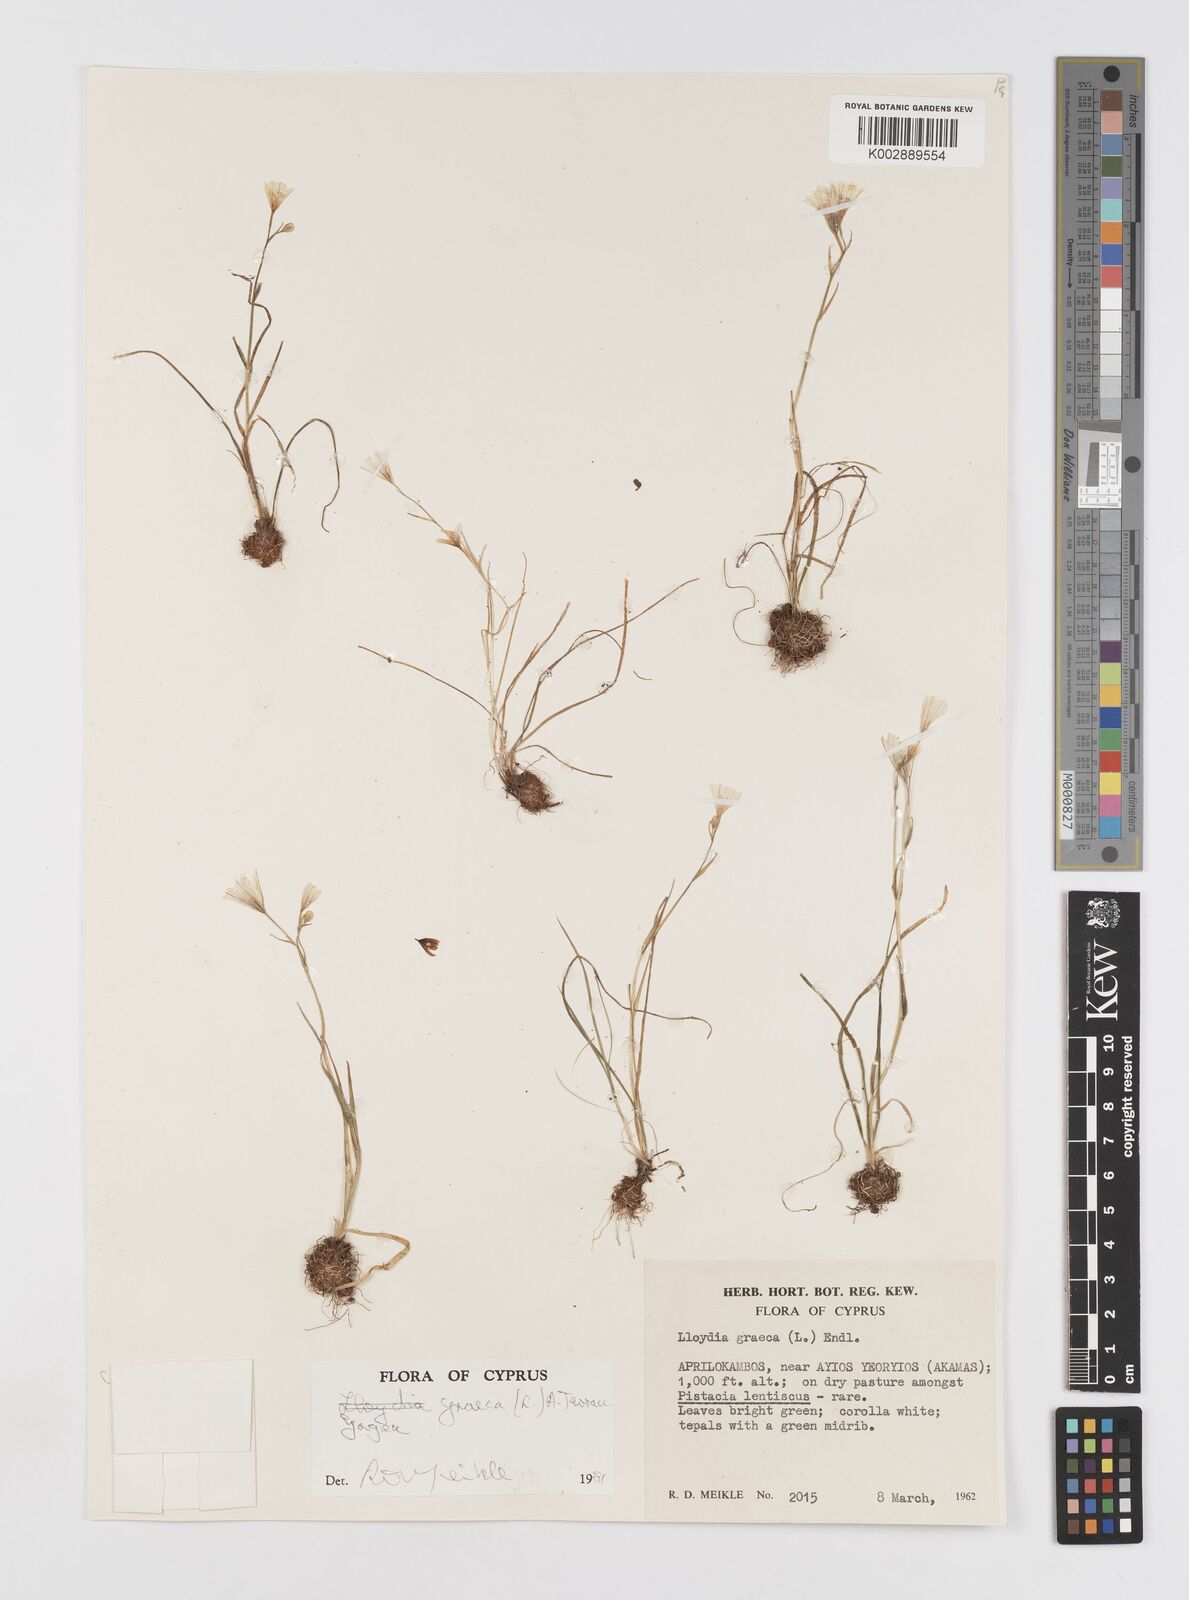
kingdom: Plantae
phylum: Tracheophyta
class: Liliopsida
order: Liliales
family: Liliaceae
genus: Gagea
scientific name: Gagea graeca
